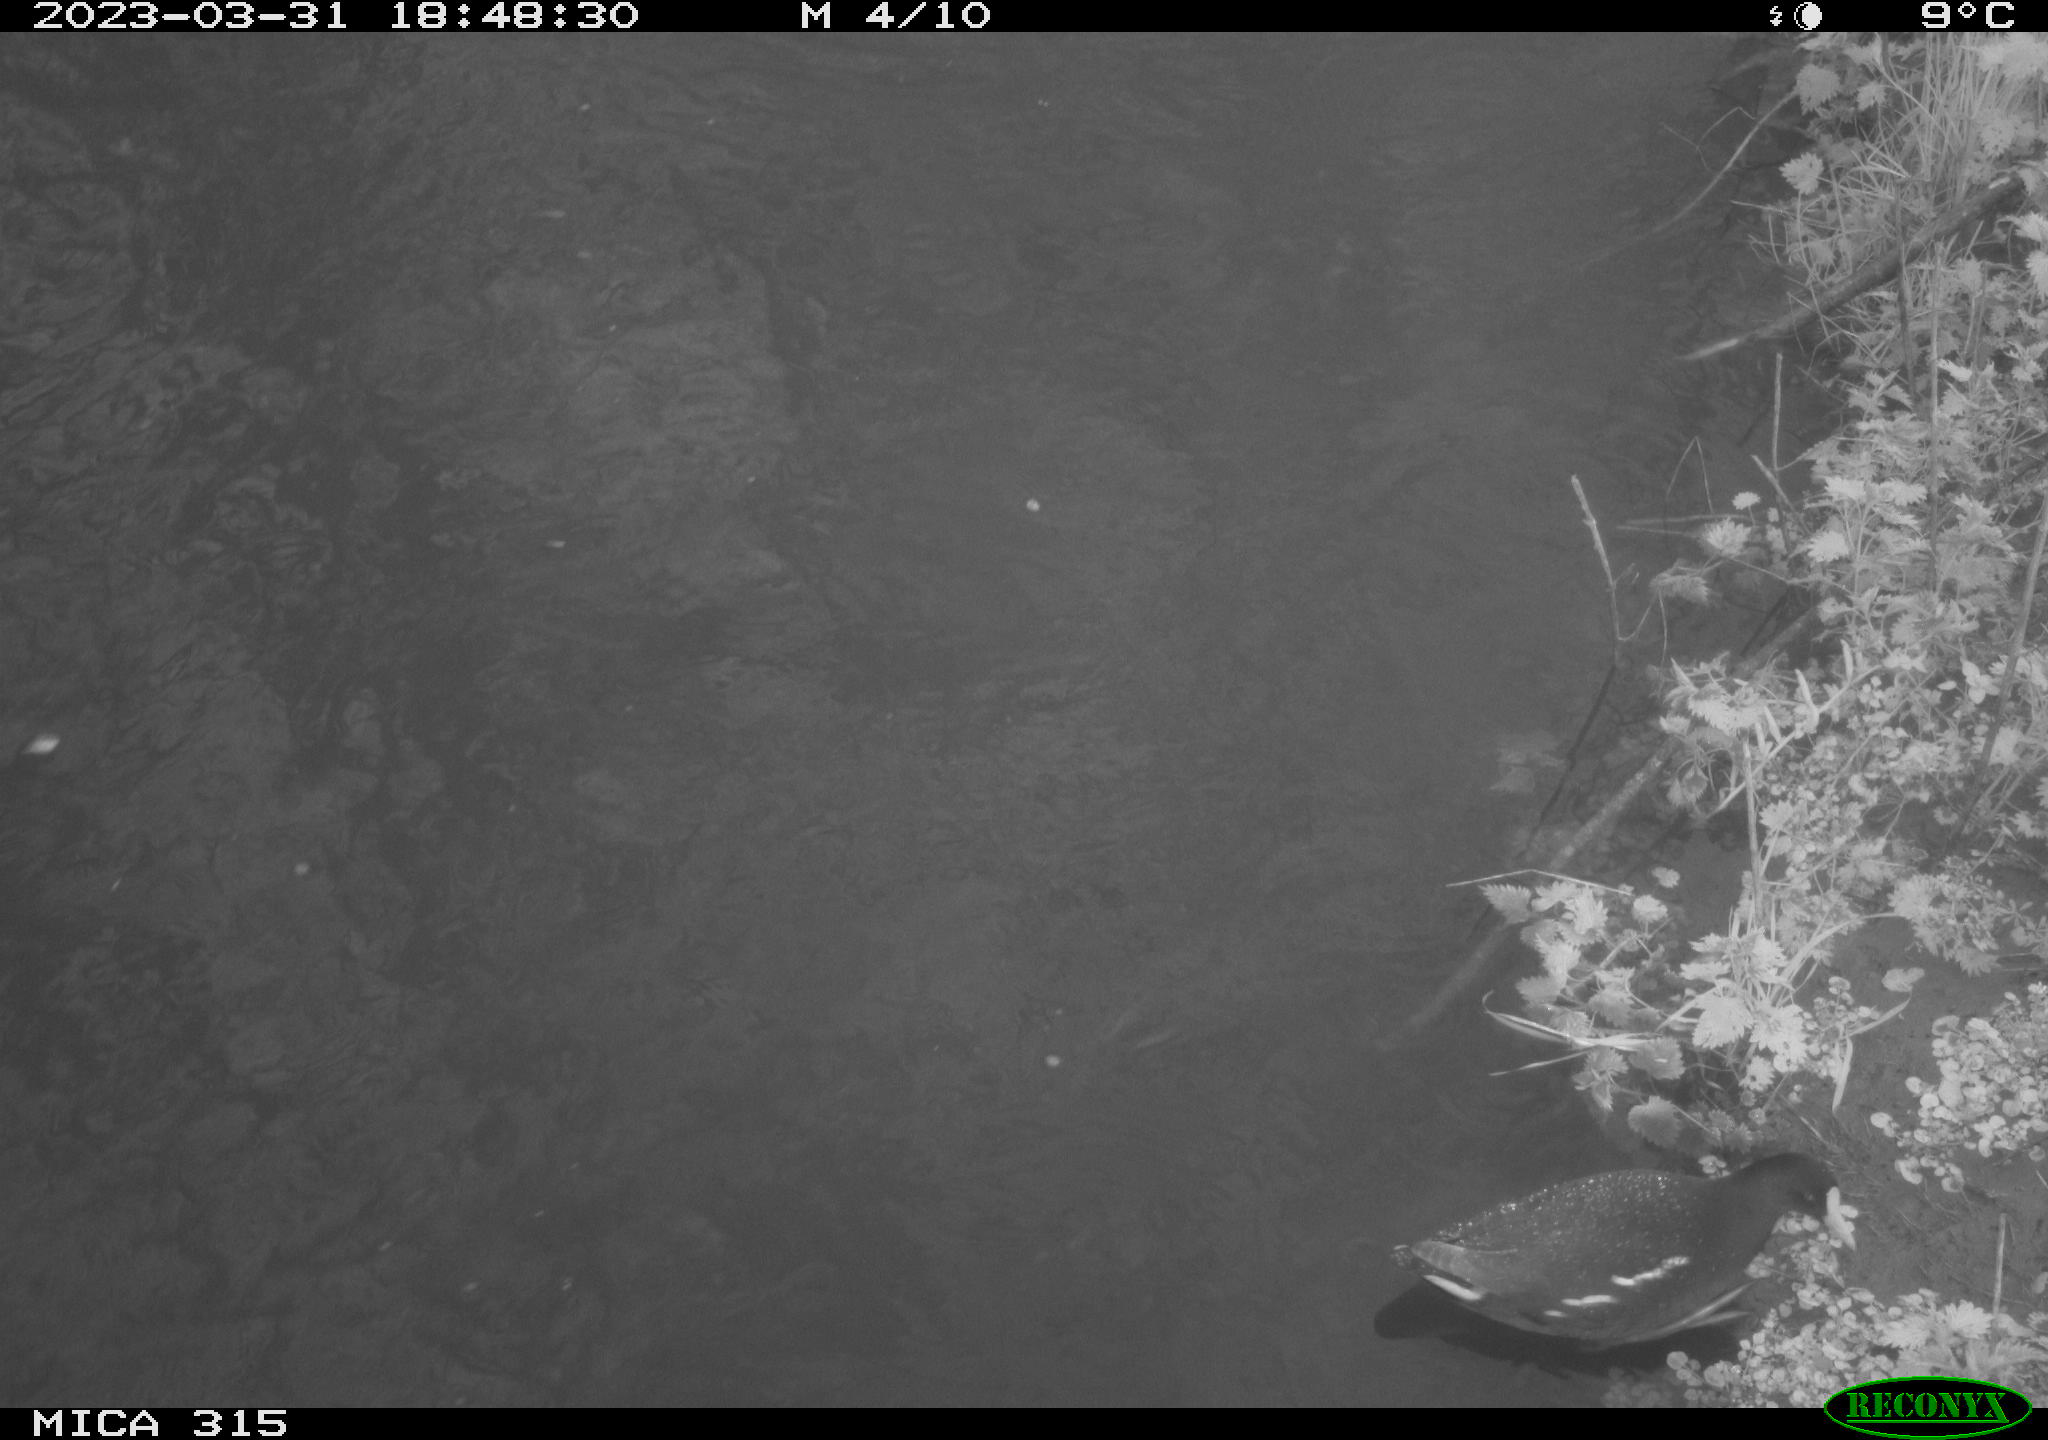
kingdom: Animalia
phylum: Chordata
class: Aves
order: Gruiformes
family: Rallidae
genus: Gallinula
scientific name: Gallinula chloropus
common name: Common moorhen
